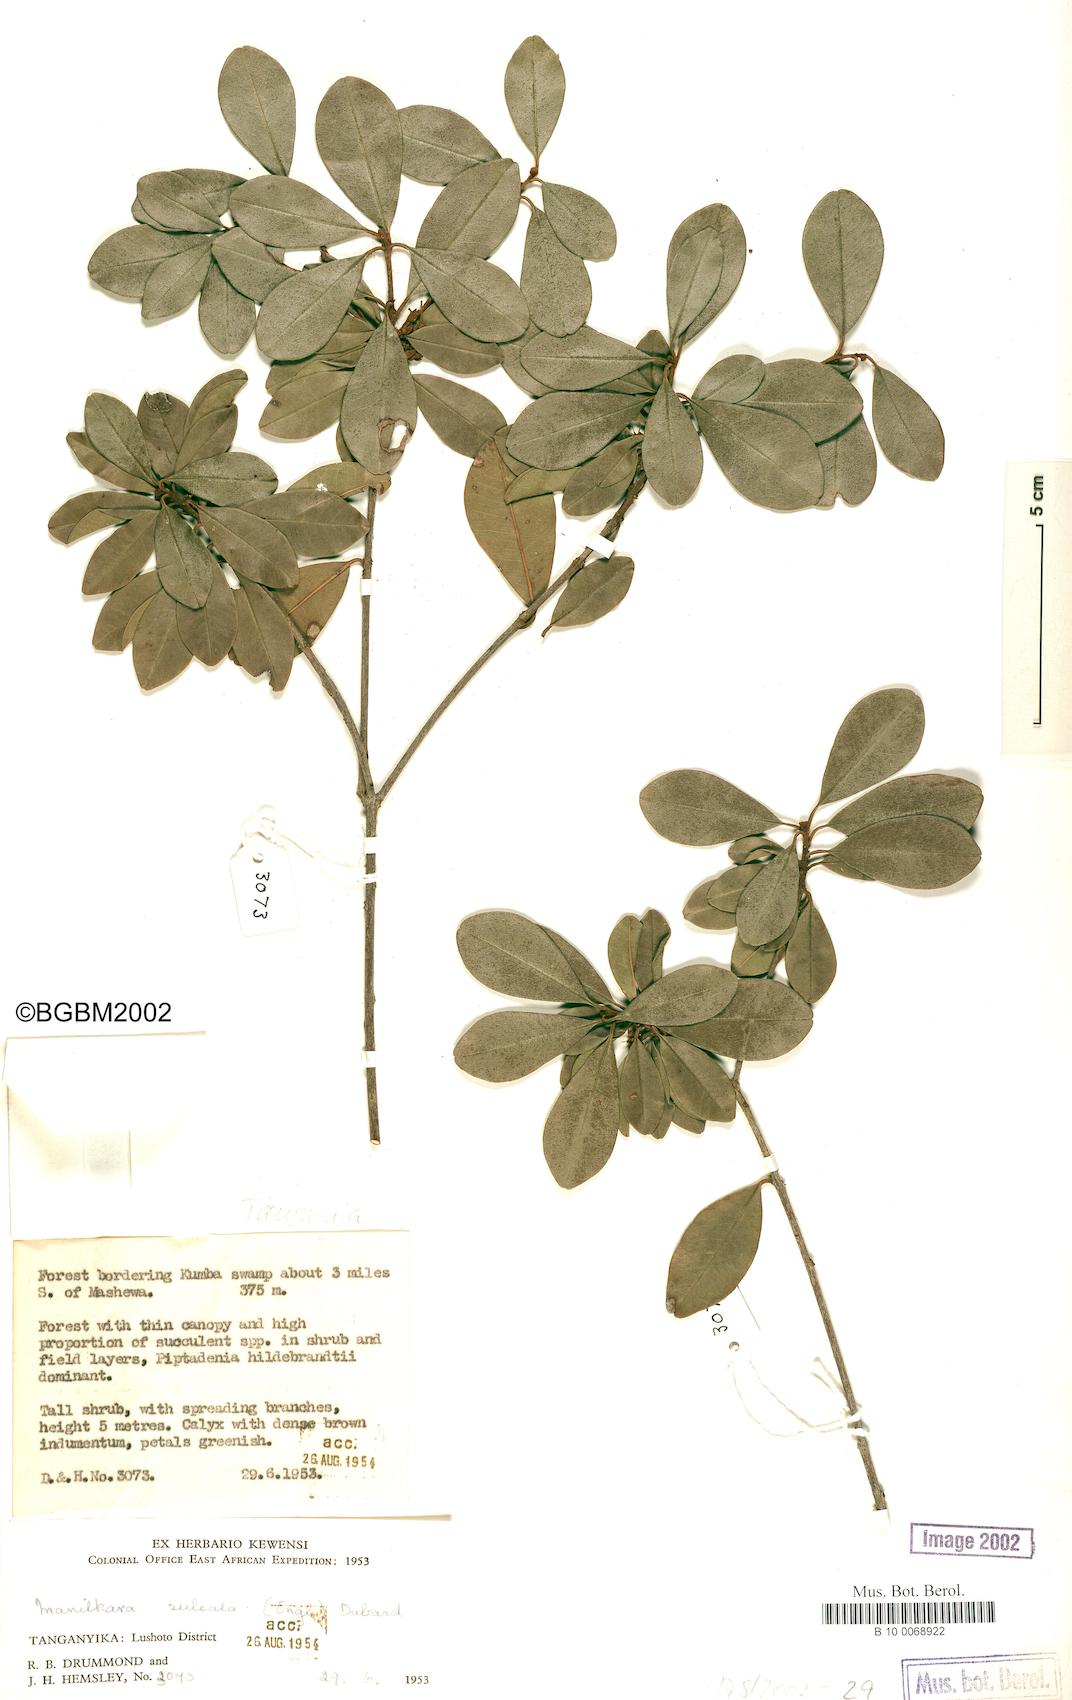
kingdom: Plantae
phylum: Tracheophyta
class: Magnoliopsida
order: Ericales
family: Sapotaceae
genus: Manilkara
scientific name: Manilkara sulcata
